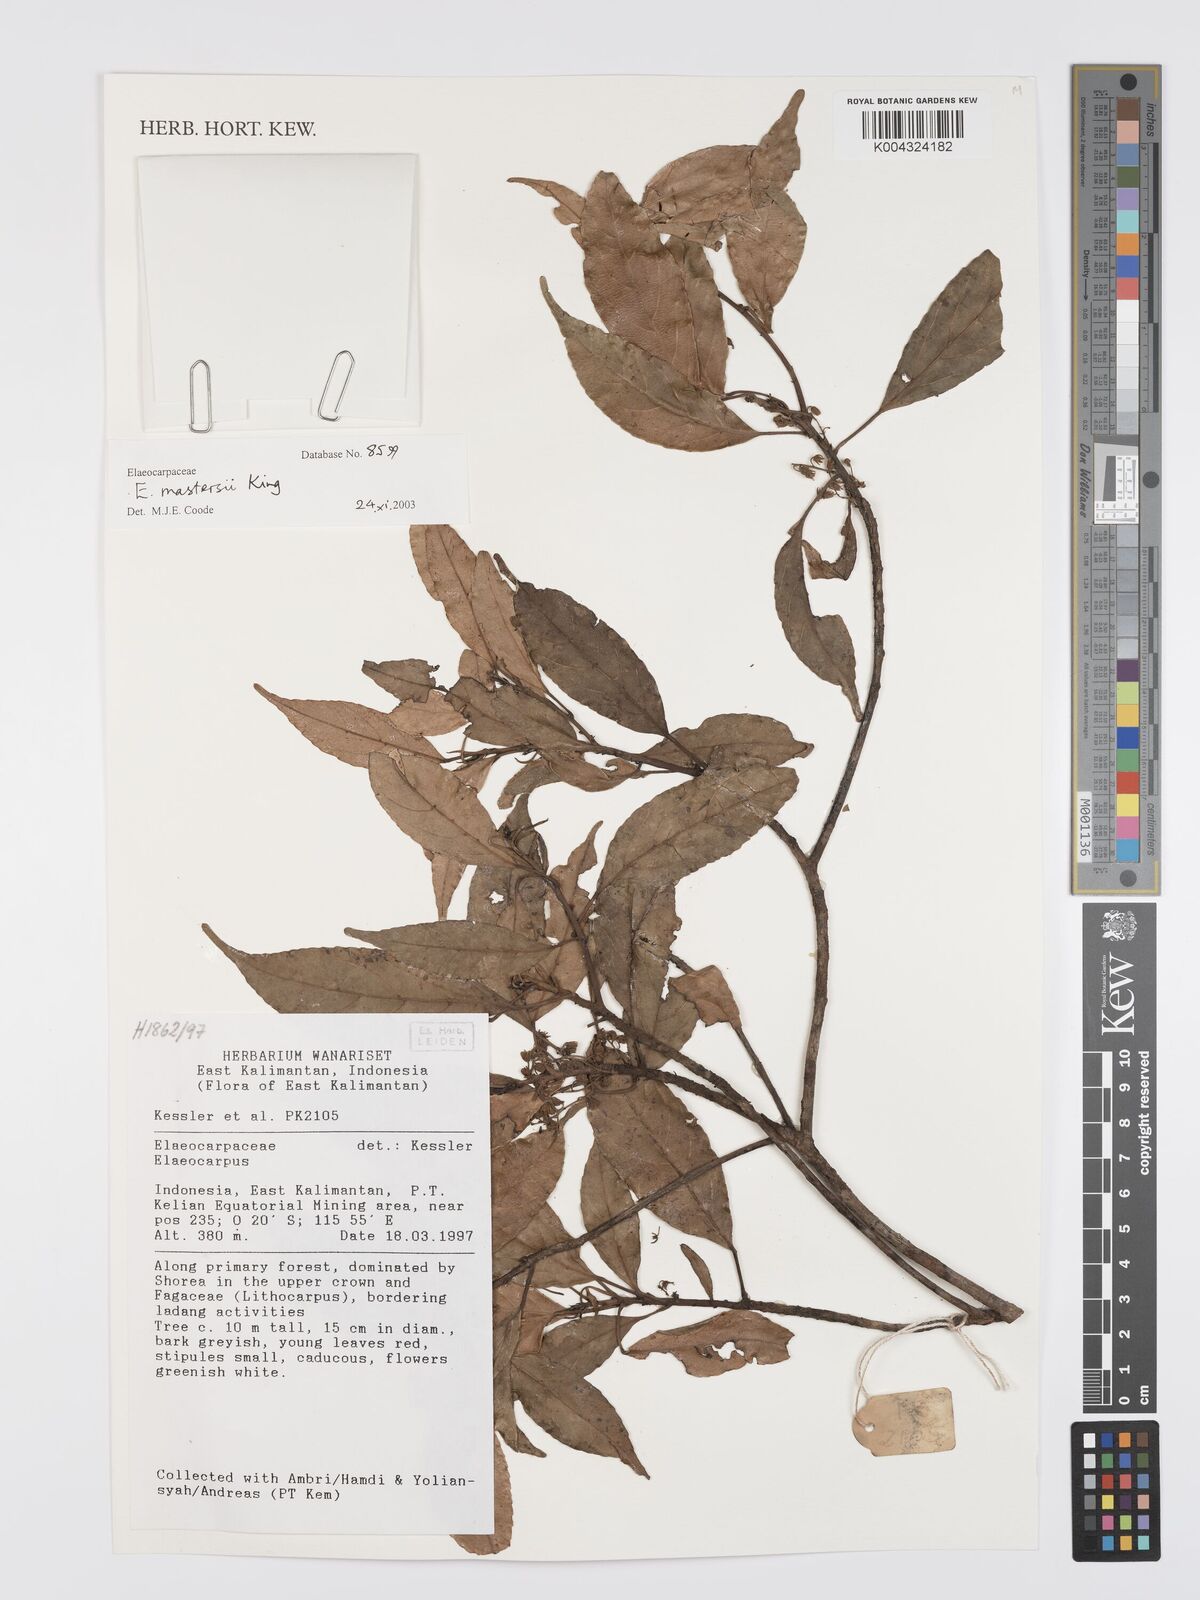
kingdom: Plantae
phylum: Tracheophyta
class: Magnoliopsida
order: Oxalidales
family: Elaeocarpaceae
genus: Elaeocarpus
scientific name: Elaeocarpus mastersii
